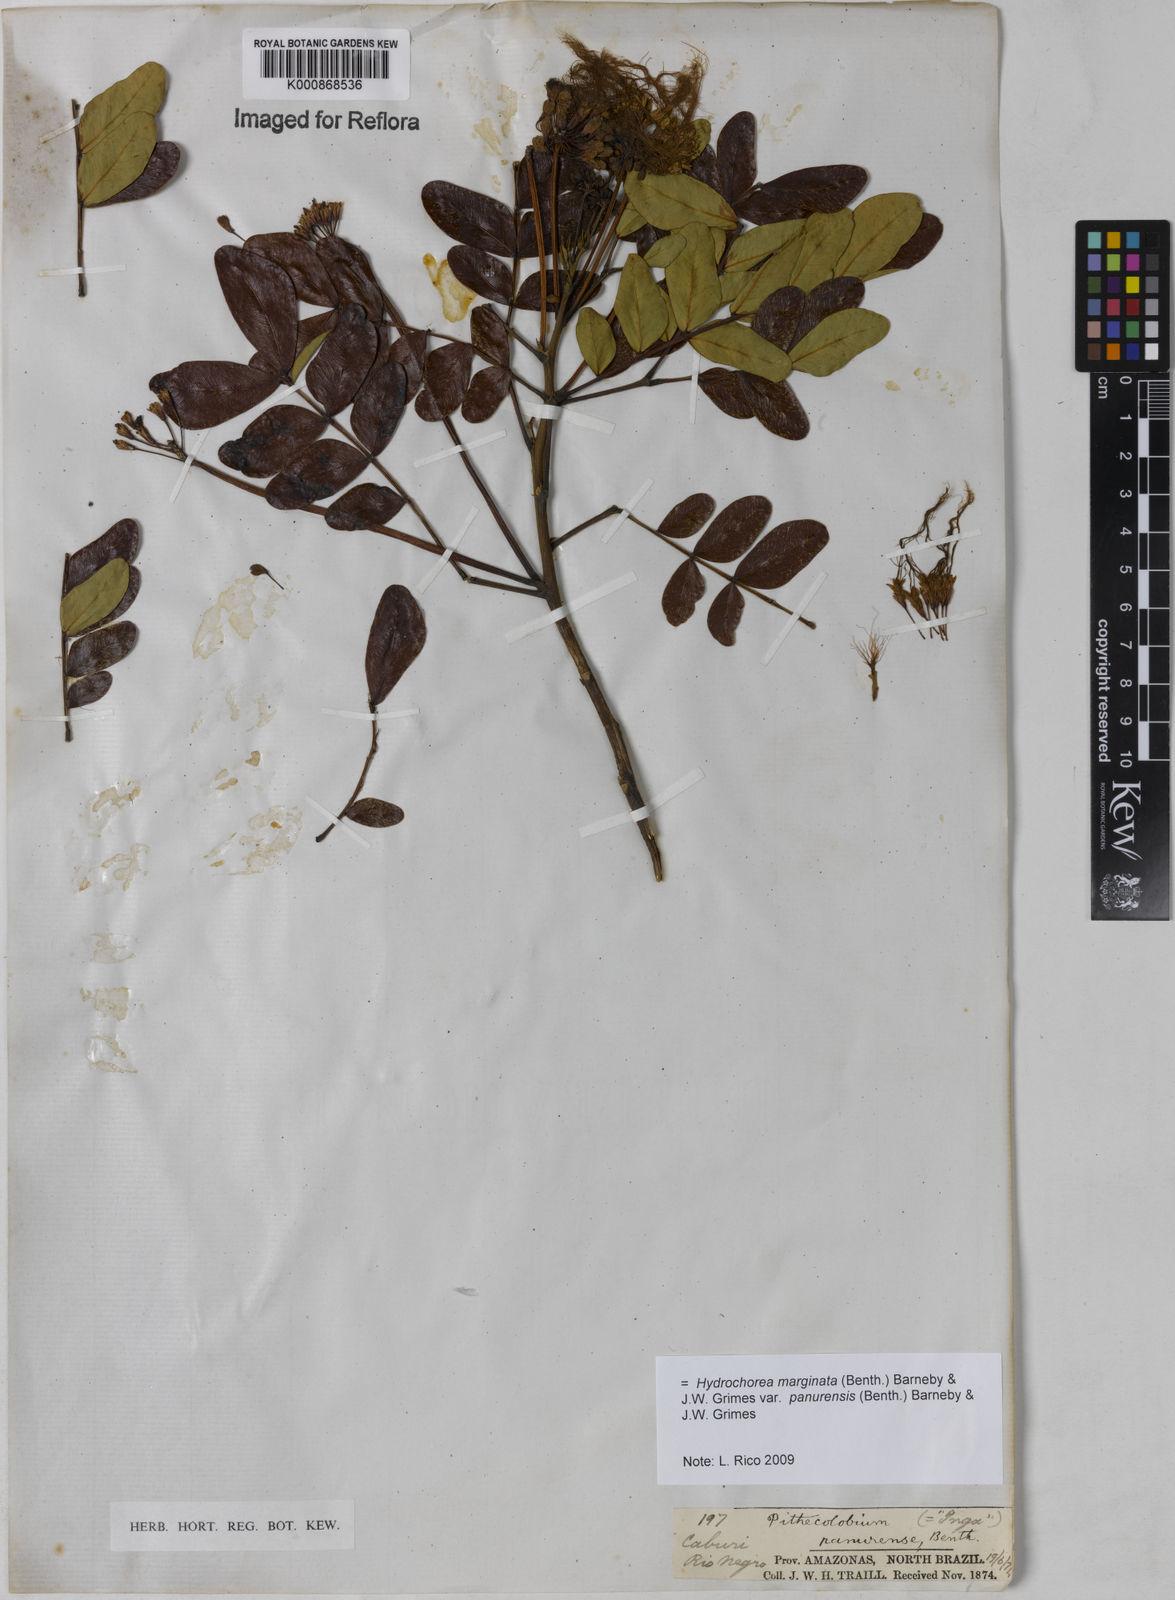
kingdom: Plantae
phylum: Tracheophyta
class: Magnoliopsida
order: Fabales
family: Fabaceae
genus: Hydrochorea
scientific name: Hydrochorea marginata
